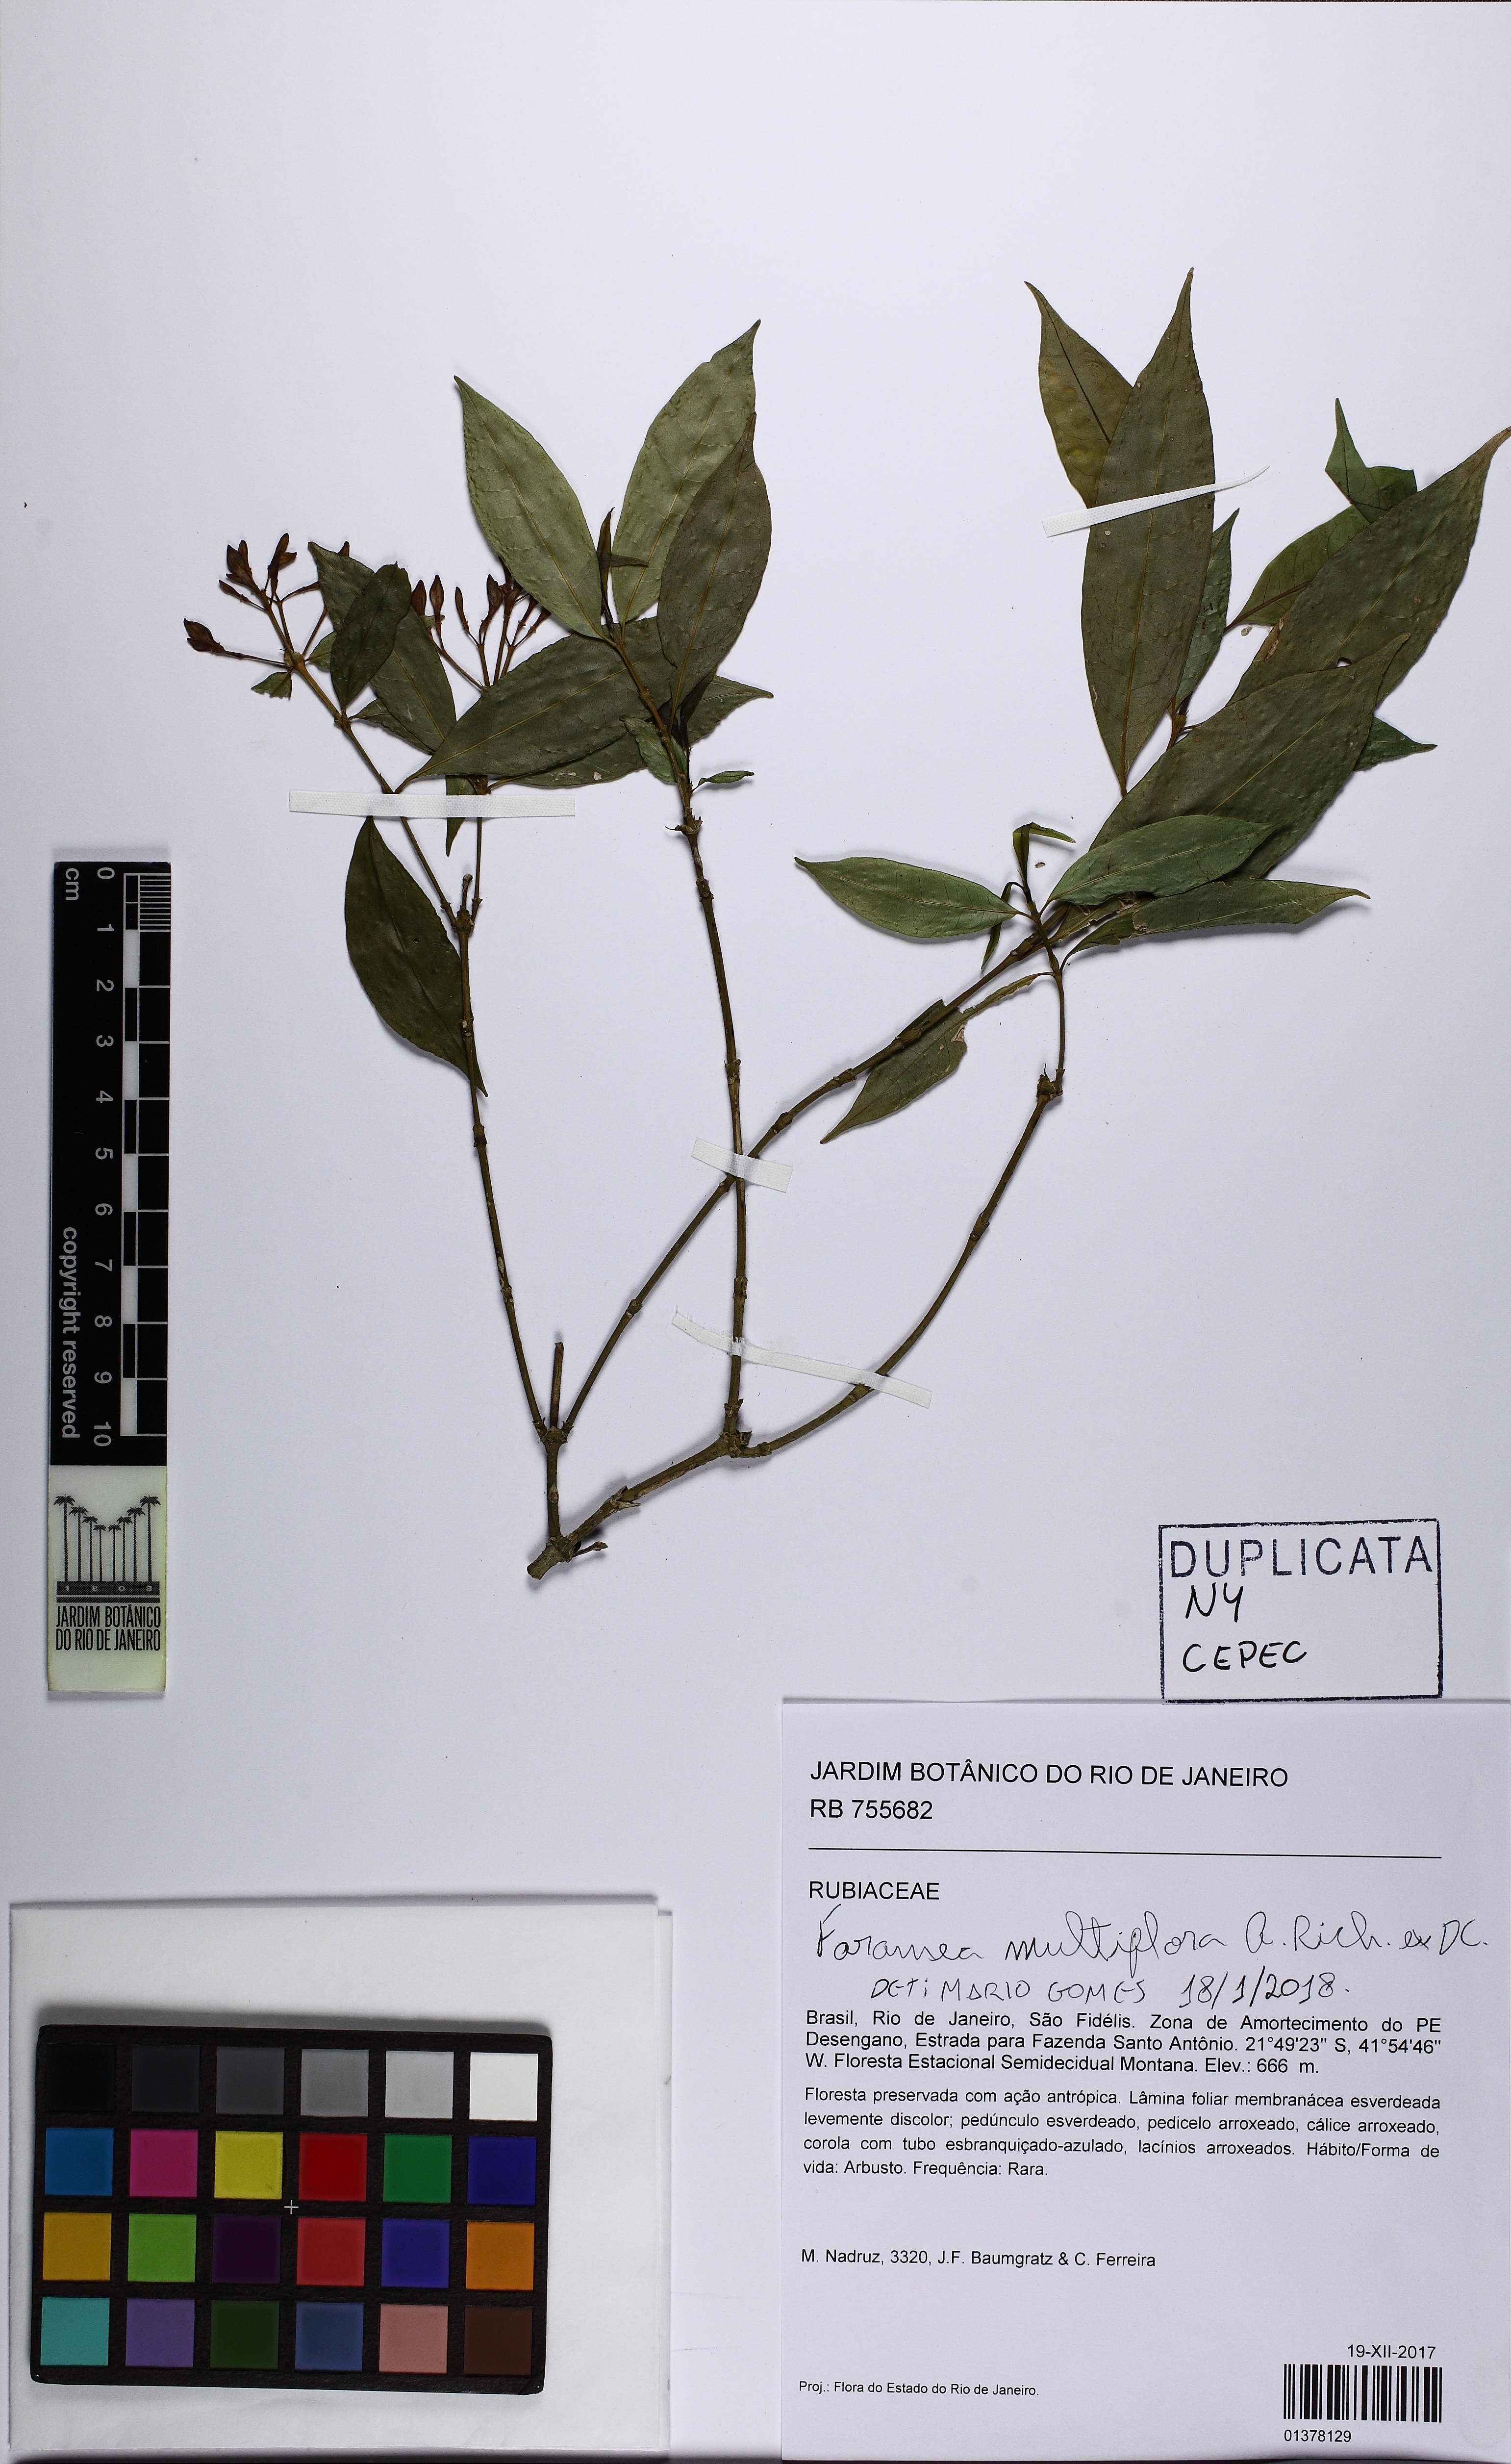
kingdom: Plantae
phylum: Tracheophyta
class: Magnoliopsida
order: Gentianales
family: Rubiaceae
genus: Faramea
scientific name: Faramea multiflora
